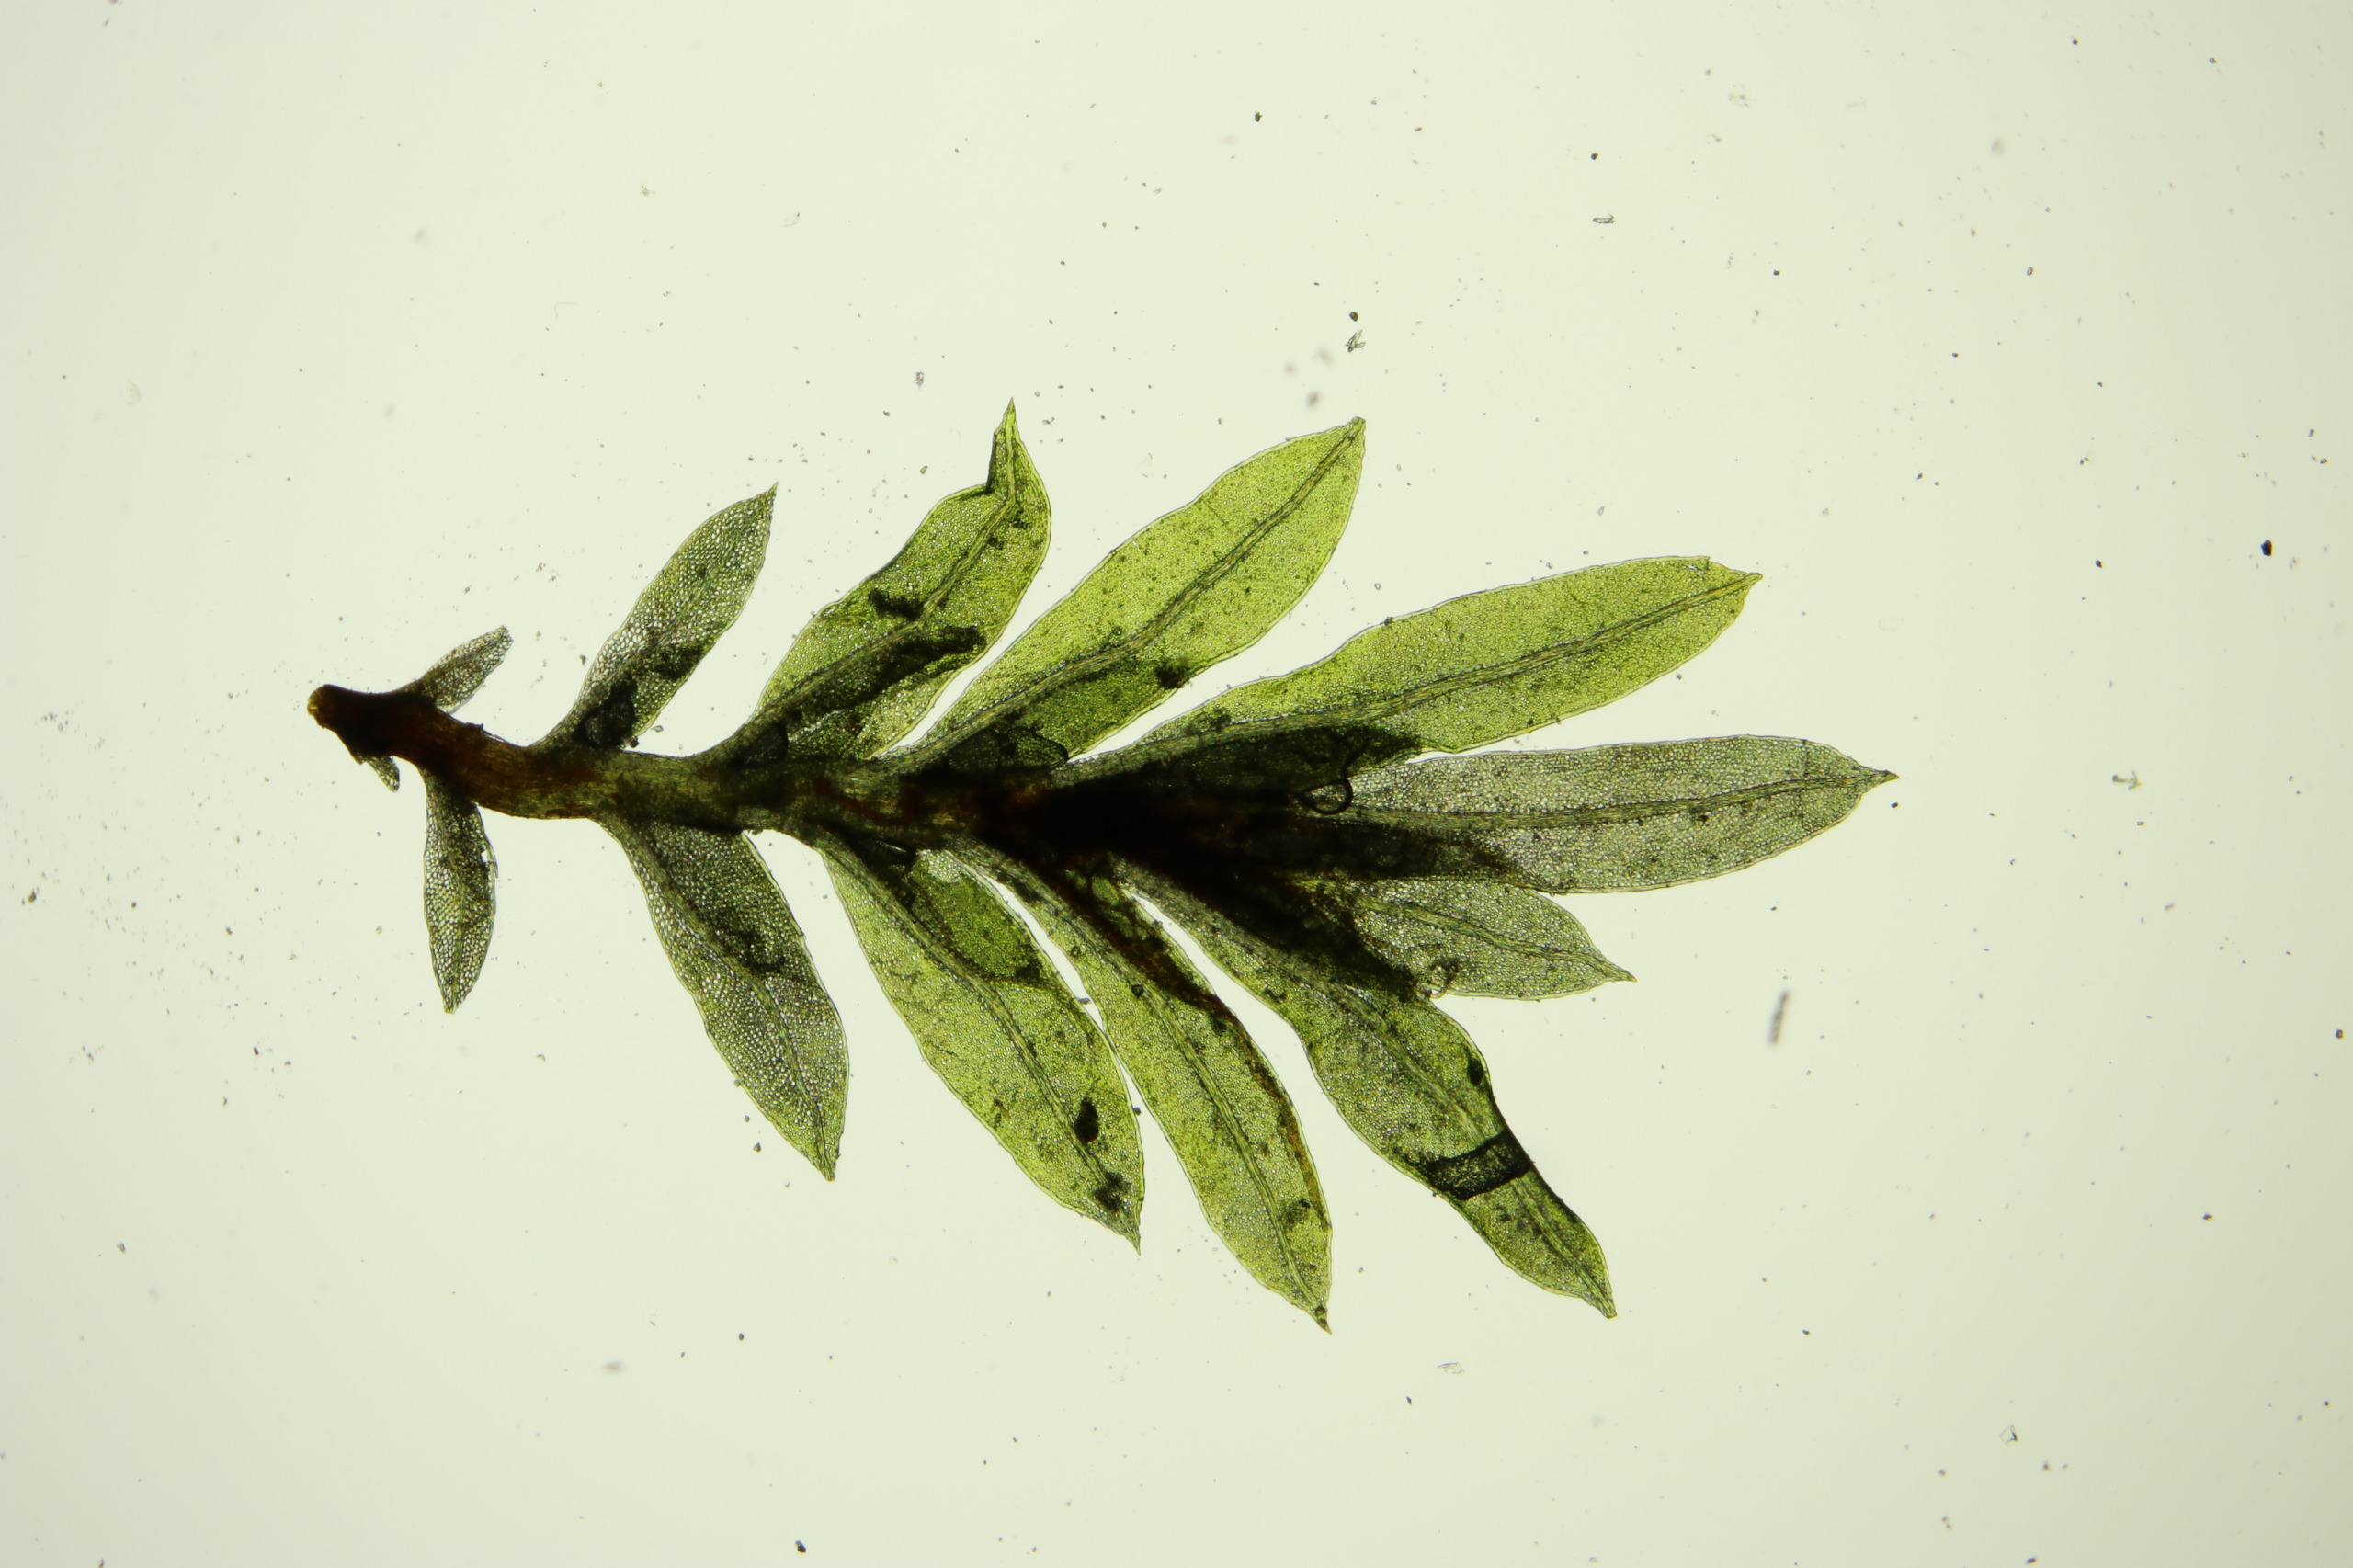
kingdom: Plantae
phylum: Bryophyta
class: Bryopsida
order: Dicranales
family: Fissidentaceae
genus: Fissidens
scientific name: Fissidens incurvus
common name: Nikkende rademos
